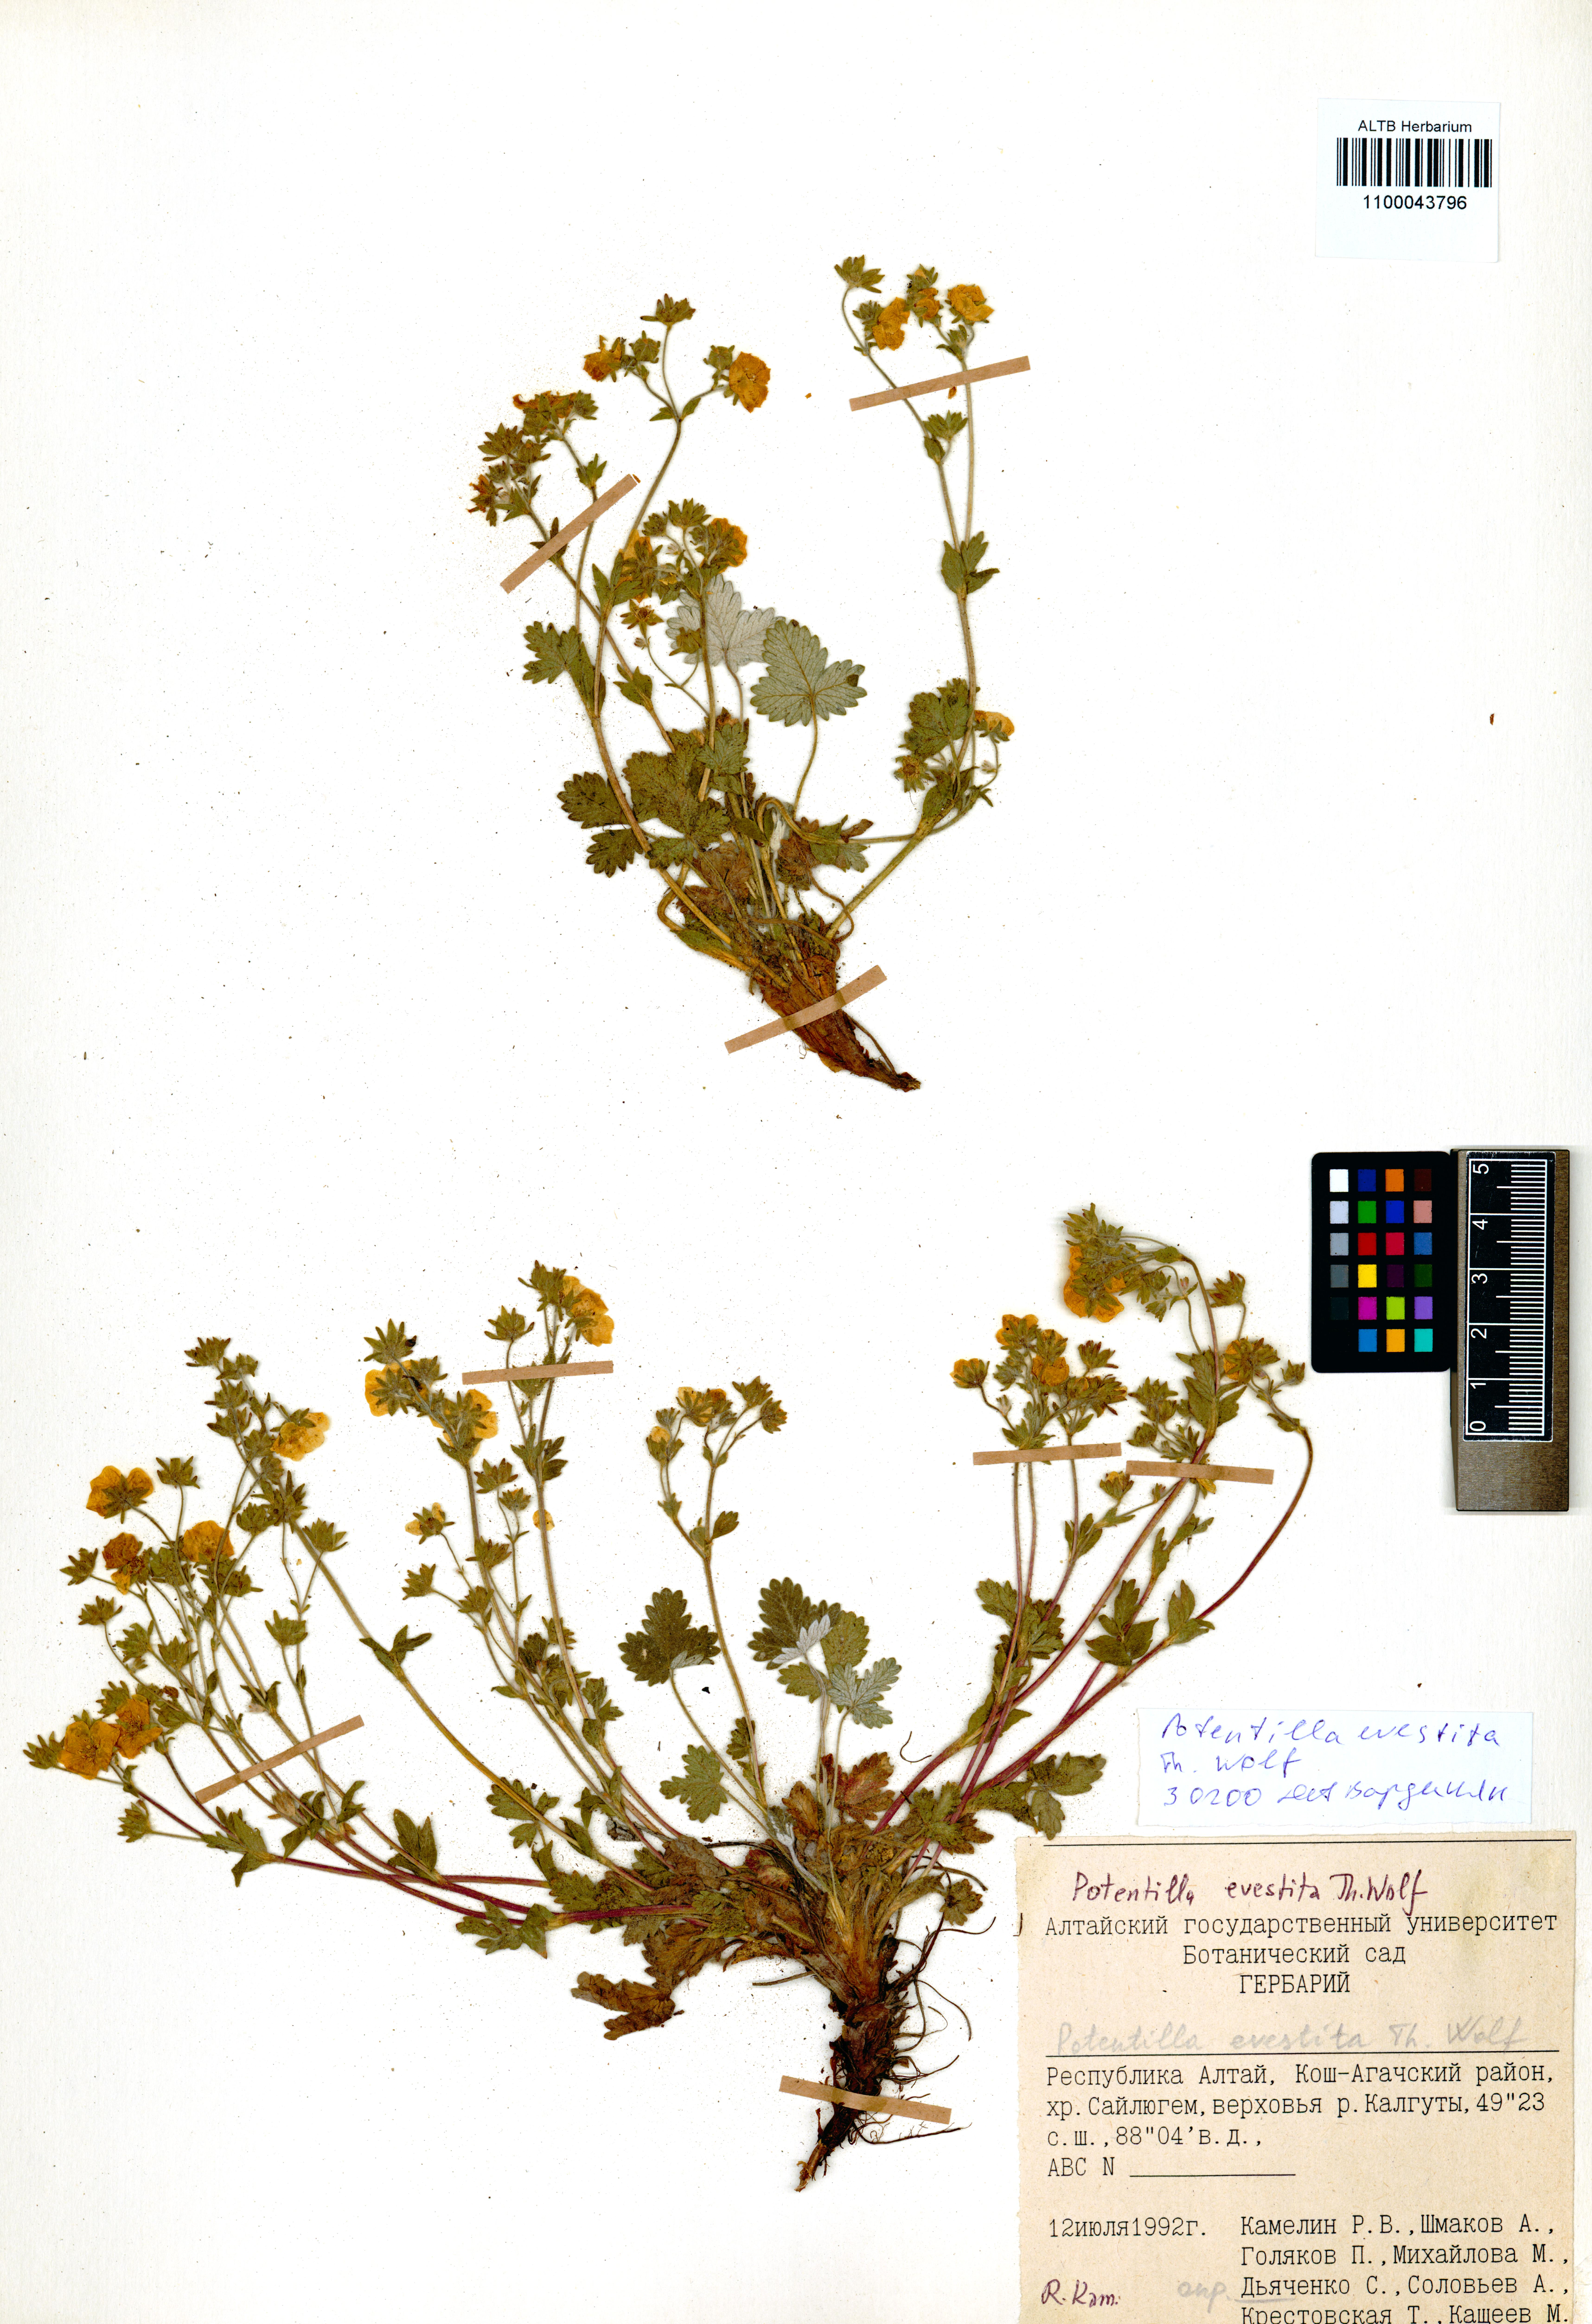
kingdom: Plantae
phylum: Tracheophyta
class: Magnoliopsida
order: Rosales
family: Rosaceae
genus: Potentilla
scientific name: Potentilla evestita
